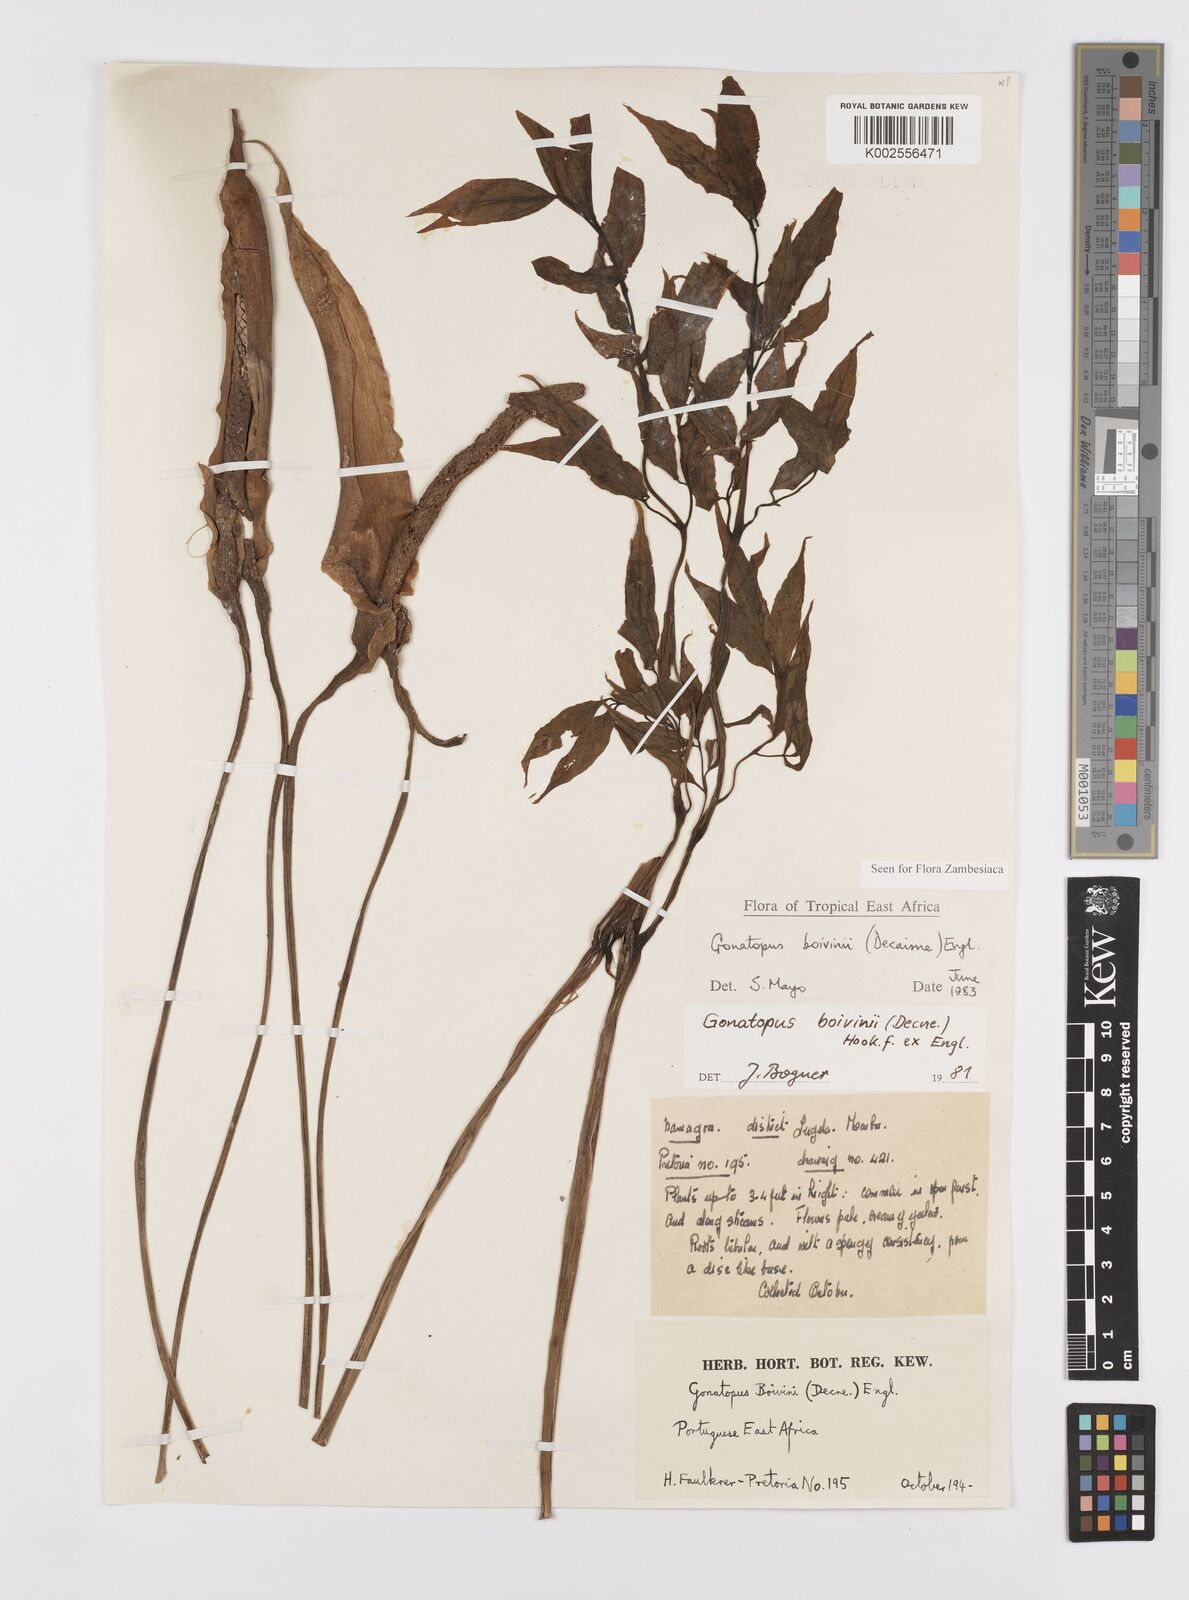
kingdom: Plantae
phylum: Tracheophyta
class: Liliopsida
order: Alismatales
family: Araceae
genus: Gonatopus
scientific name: Gonatopus boivinii
